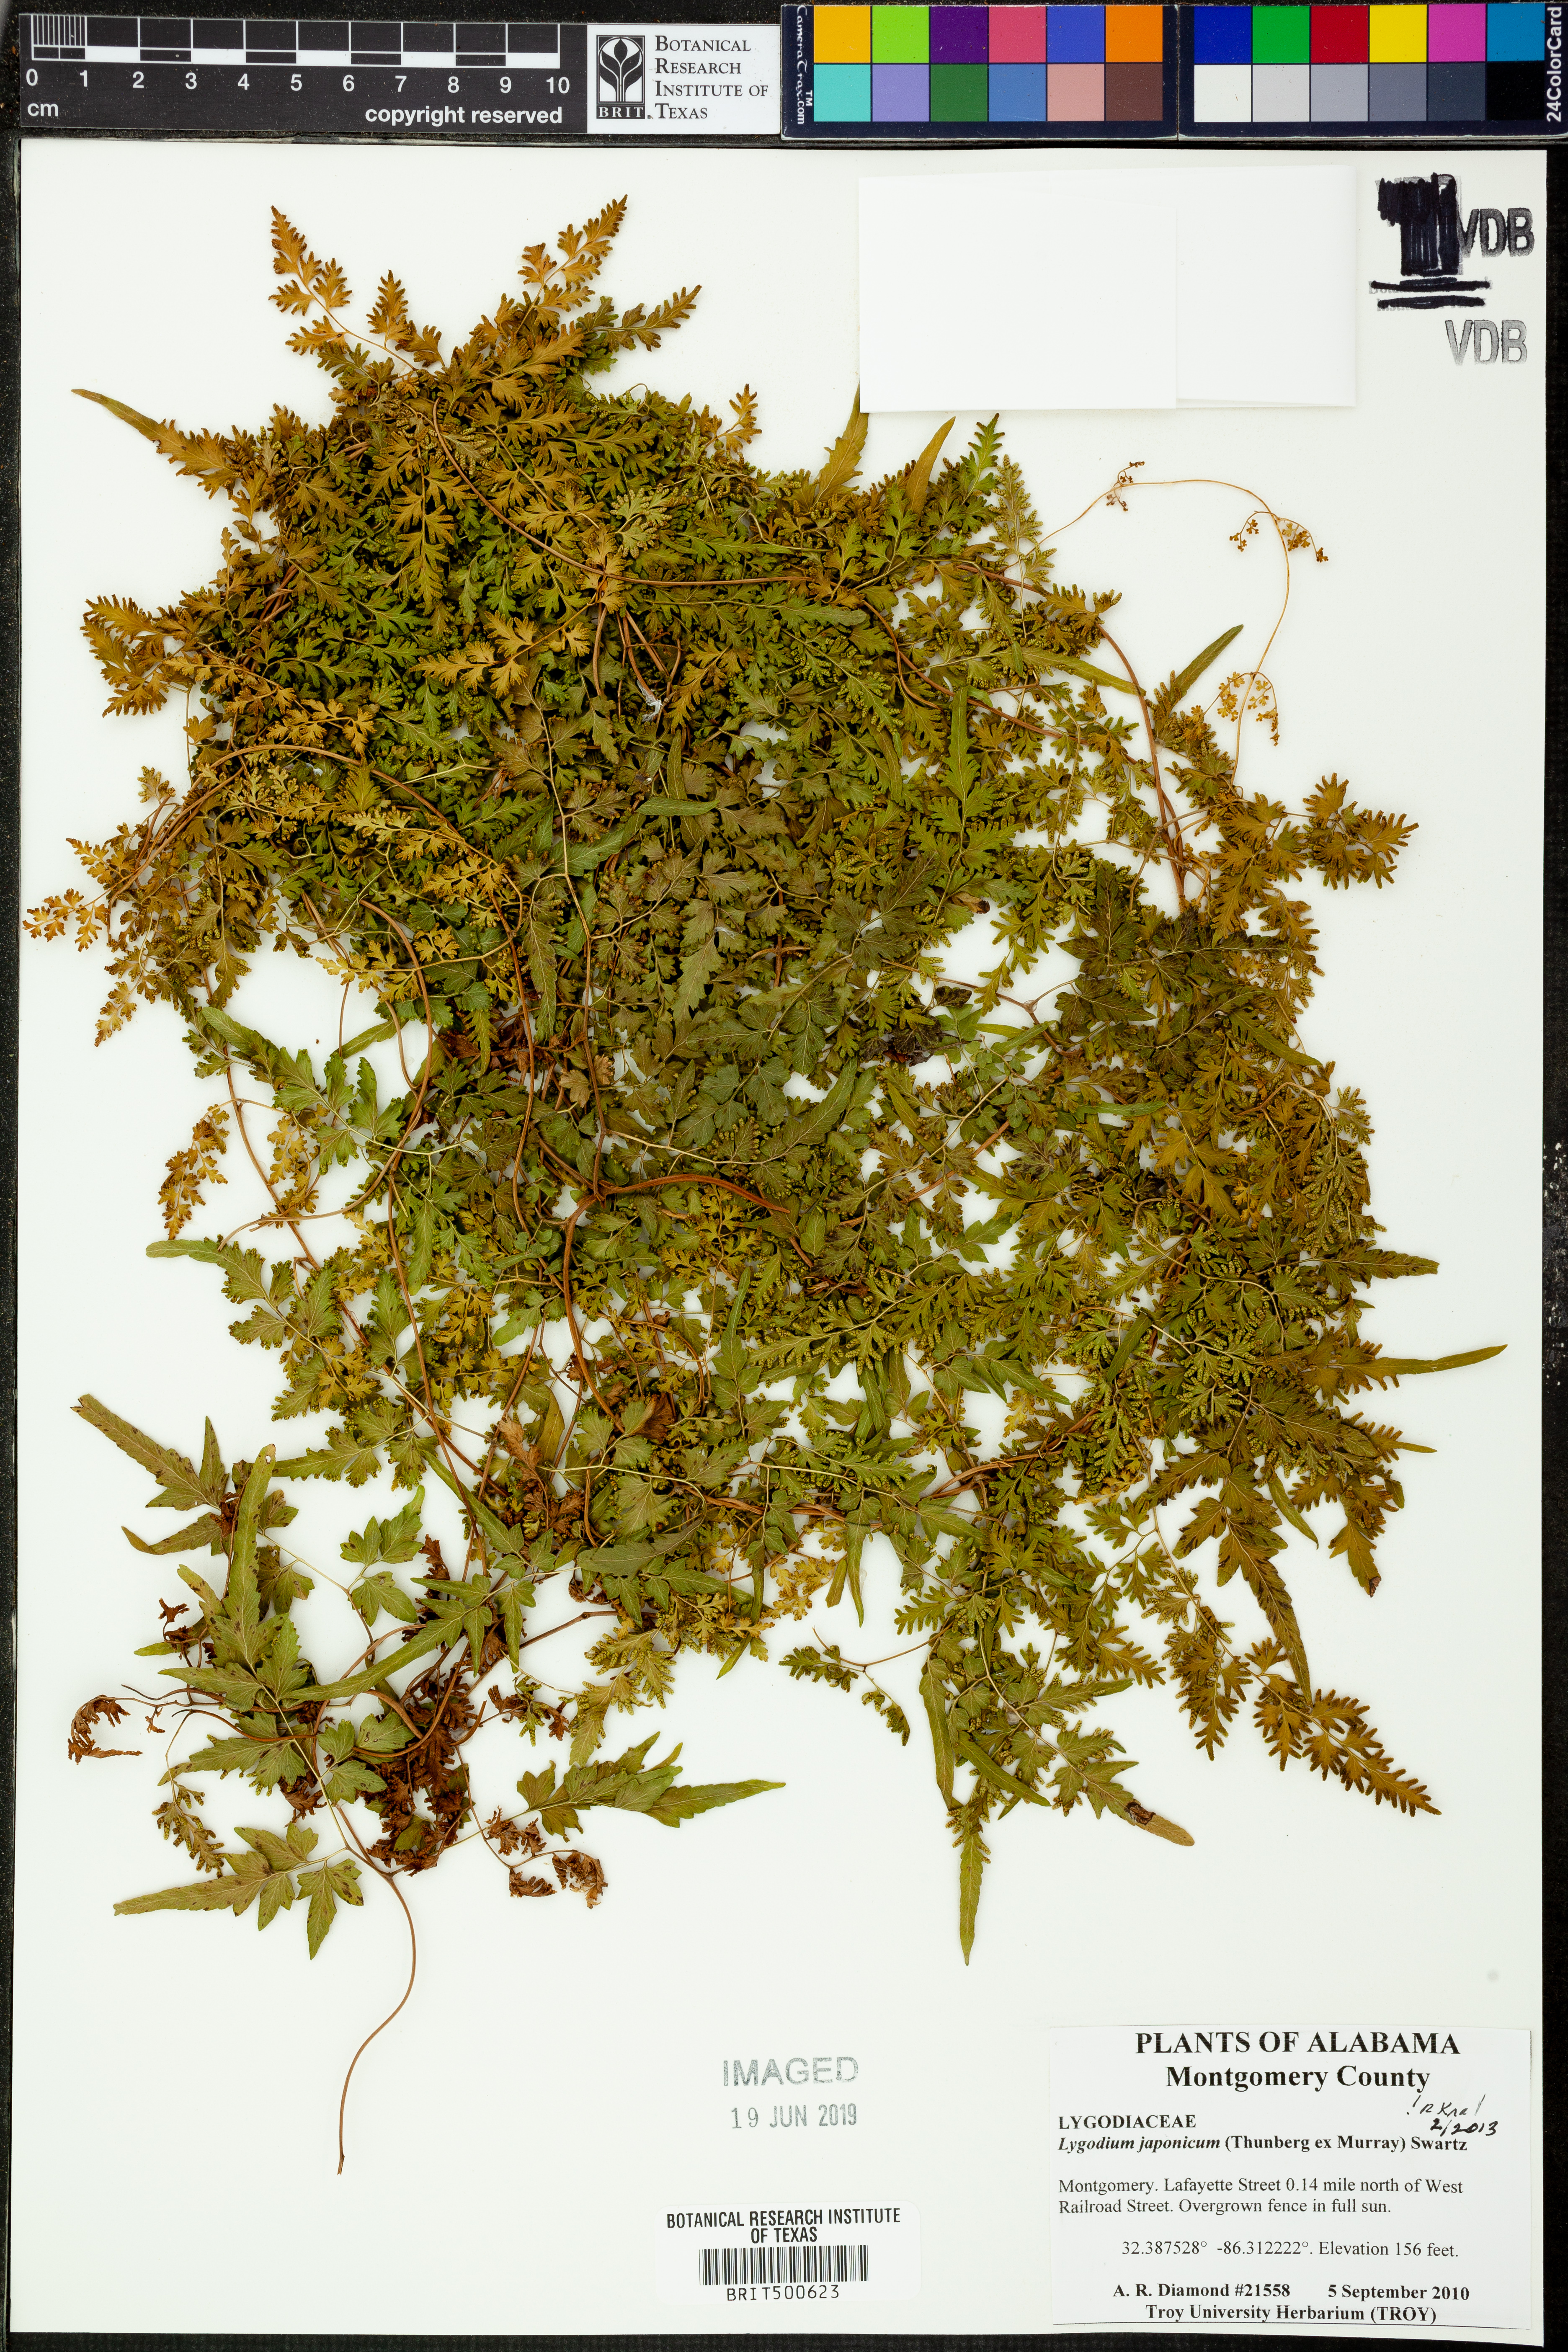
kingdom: Plantae
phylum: Tracheophyta
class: Polypodiopsida
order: Schizaeales
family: Lygodiaceae
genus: Lygodium
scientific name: Lygodium japonicum
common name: Japanese climbing fern
